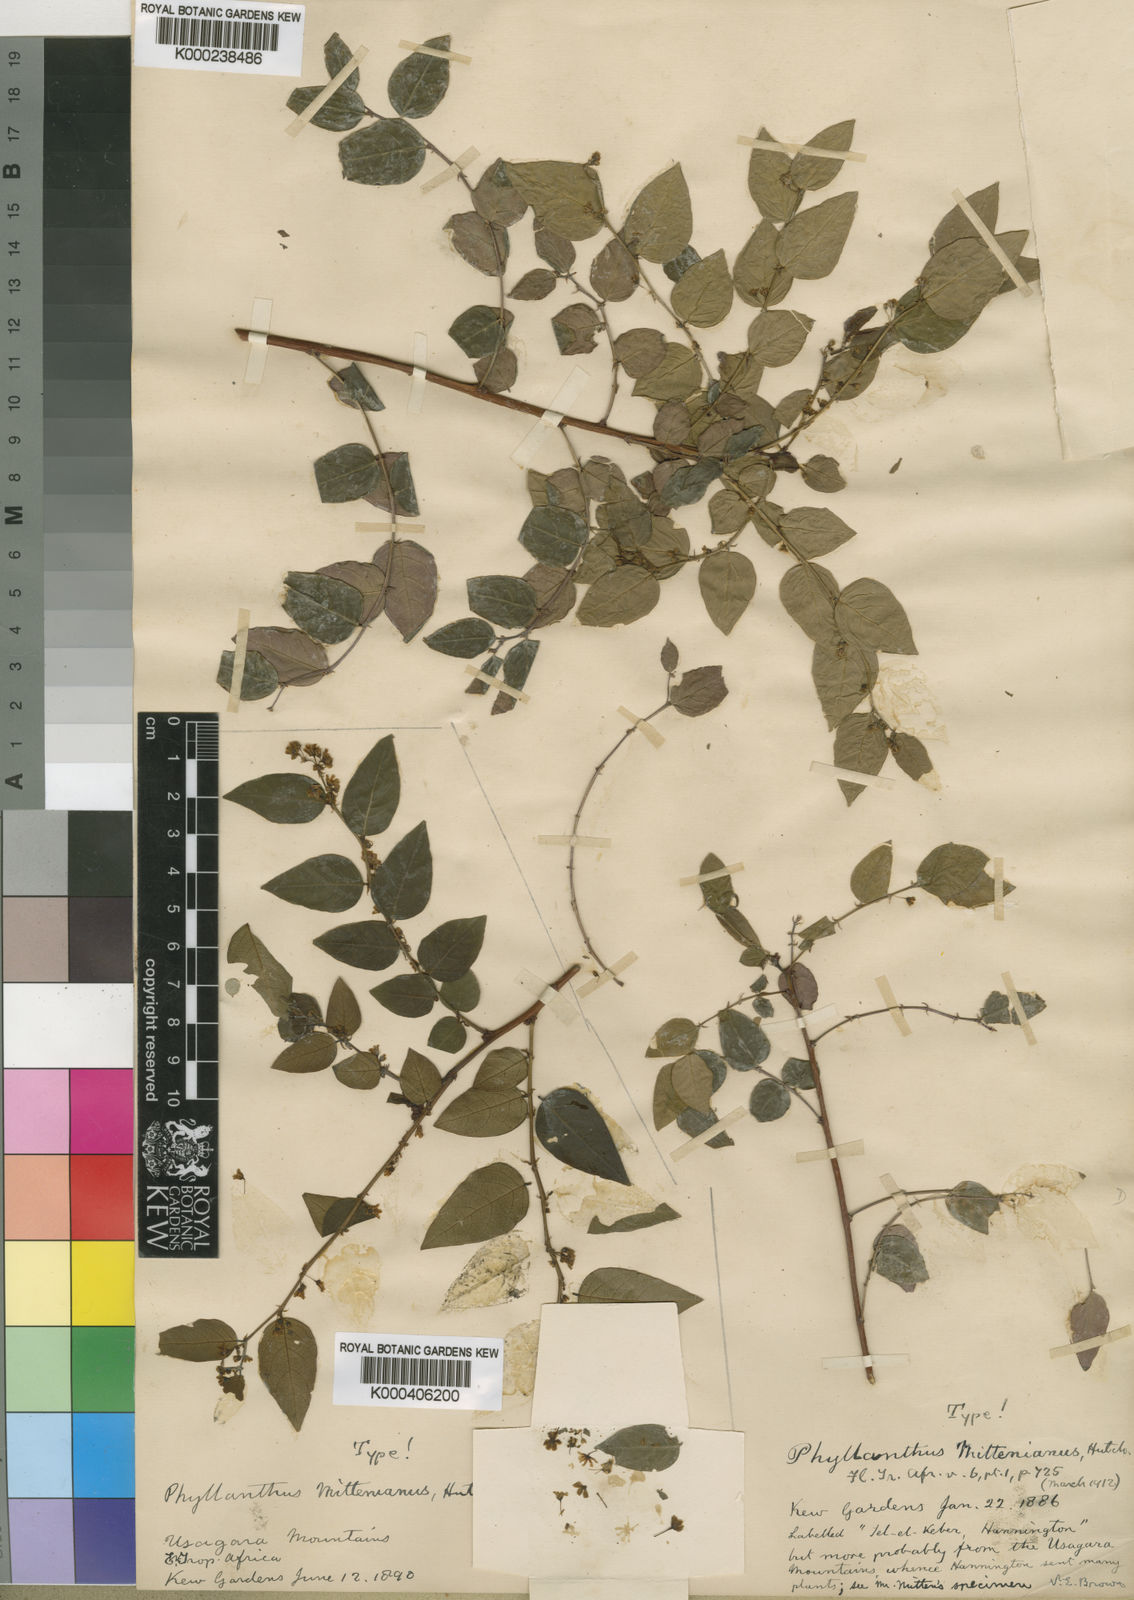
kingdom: Plantae
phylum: Tracheophyta
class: Magnoliopsida
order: Malpighiales
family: Phyllanthaceae
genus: Phyllanthus
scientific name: Phyllanthus mittenianus
